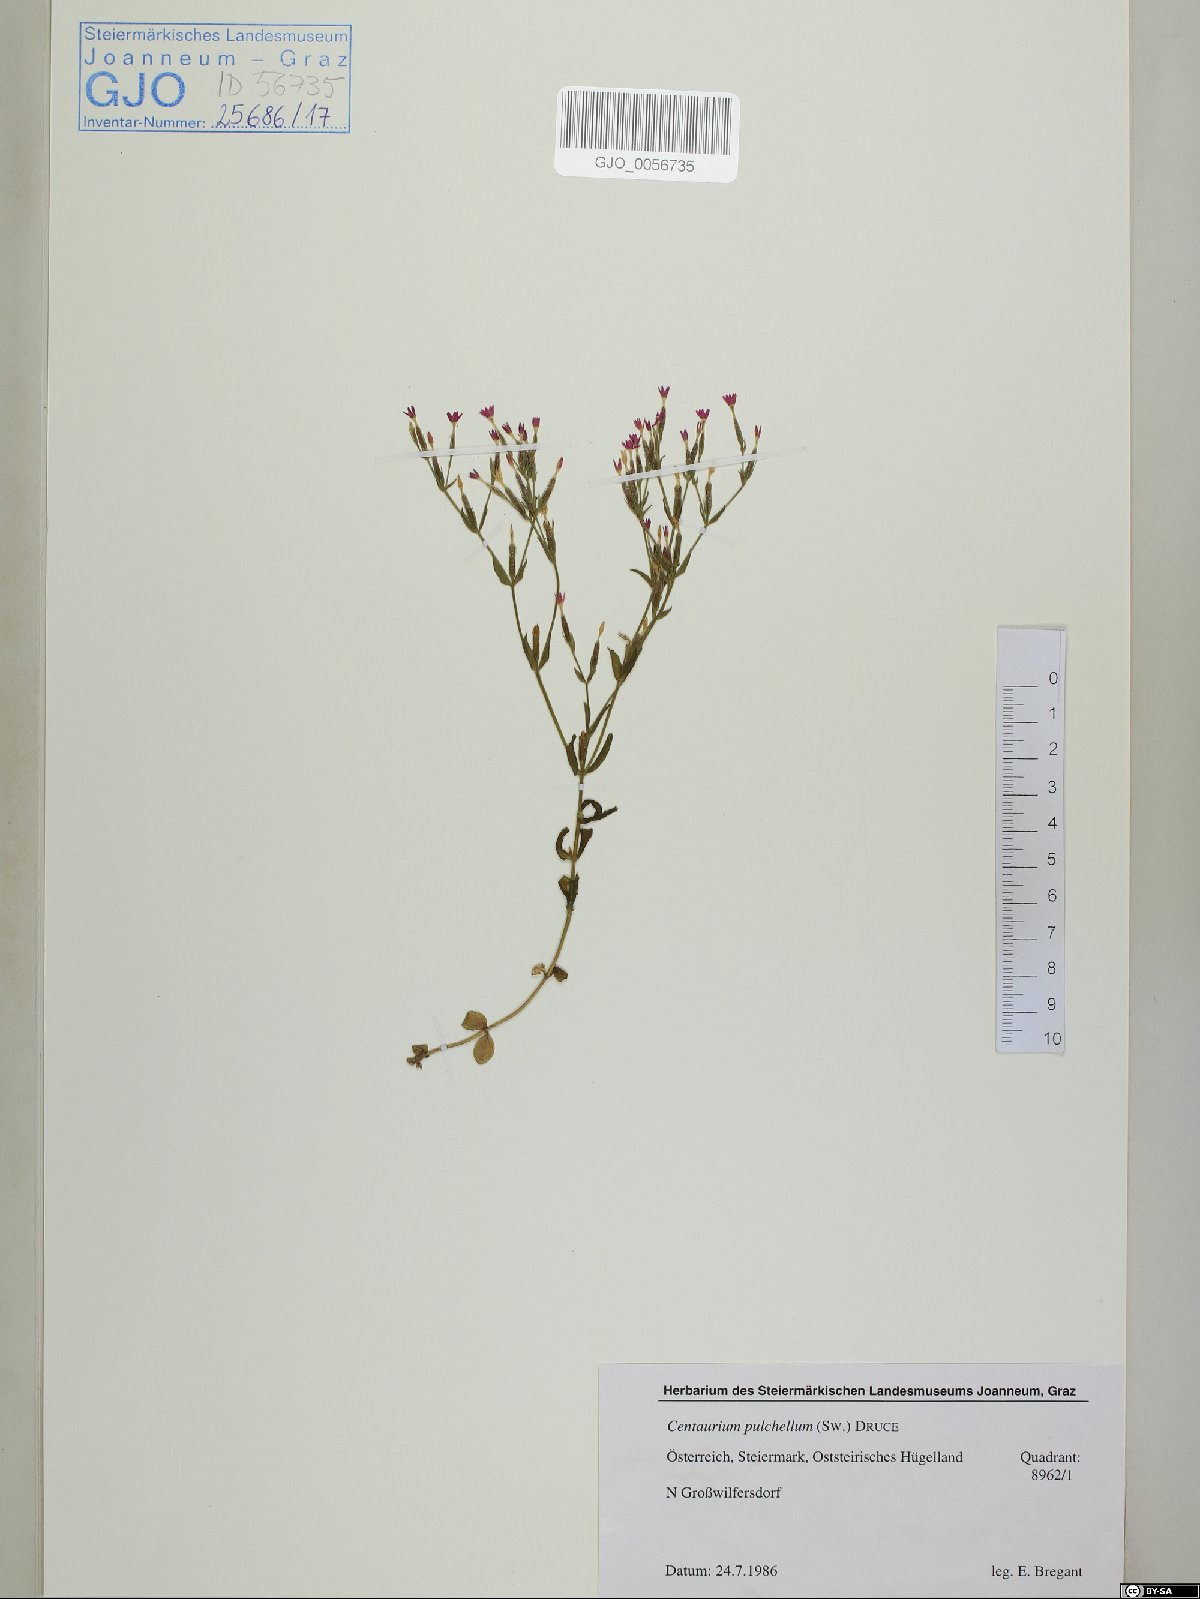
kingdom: Plantae
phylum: Tracheophyta
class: Magnoliopsida
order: Gentianales
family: Gentianaceae
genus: Centaurium
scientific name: Centaurium pulchellum
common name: Lesser centaury
